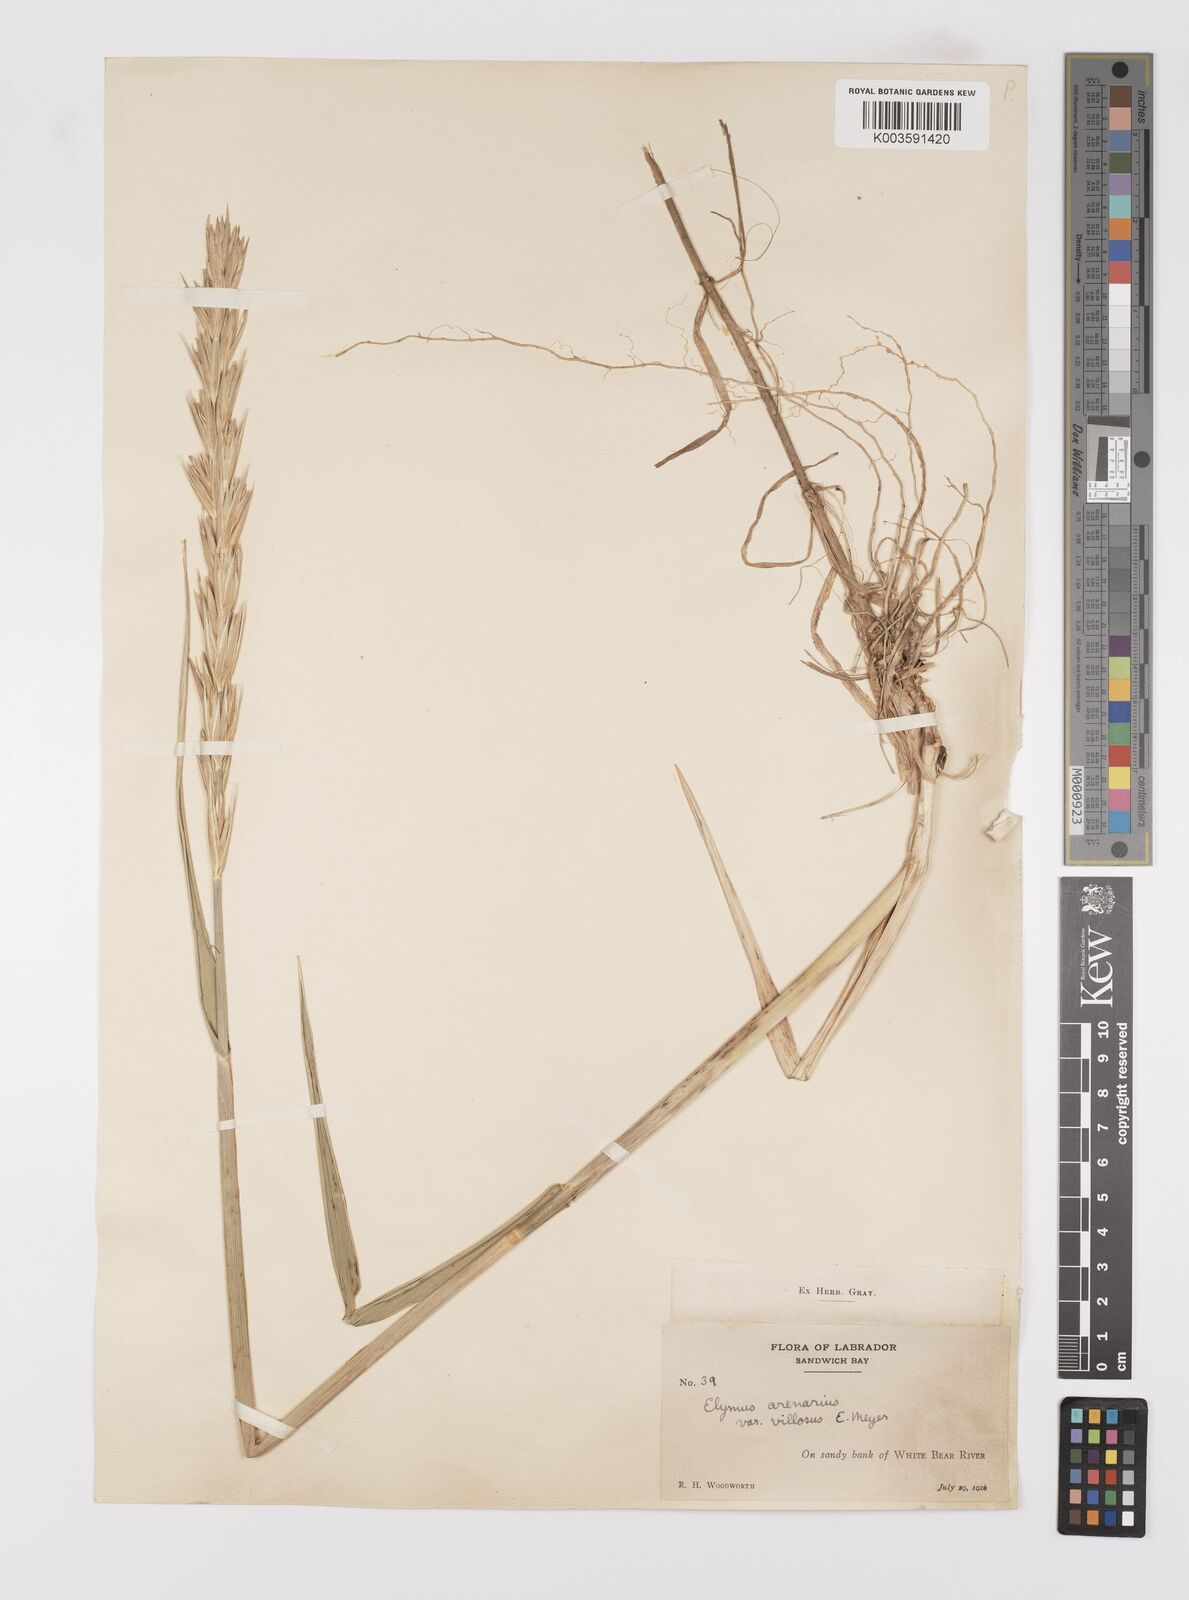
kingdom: Plantae
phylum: Tracheophyta
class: Liliopsida
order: Poales
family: Poaceae
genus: Leymus
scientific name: Leymus mollis
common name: American dune grass
